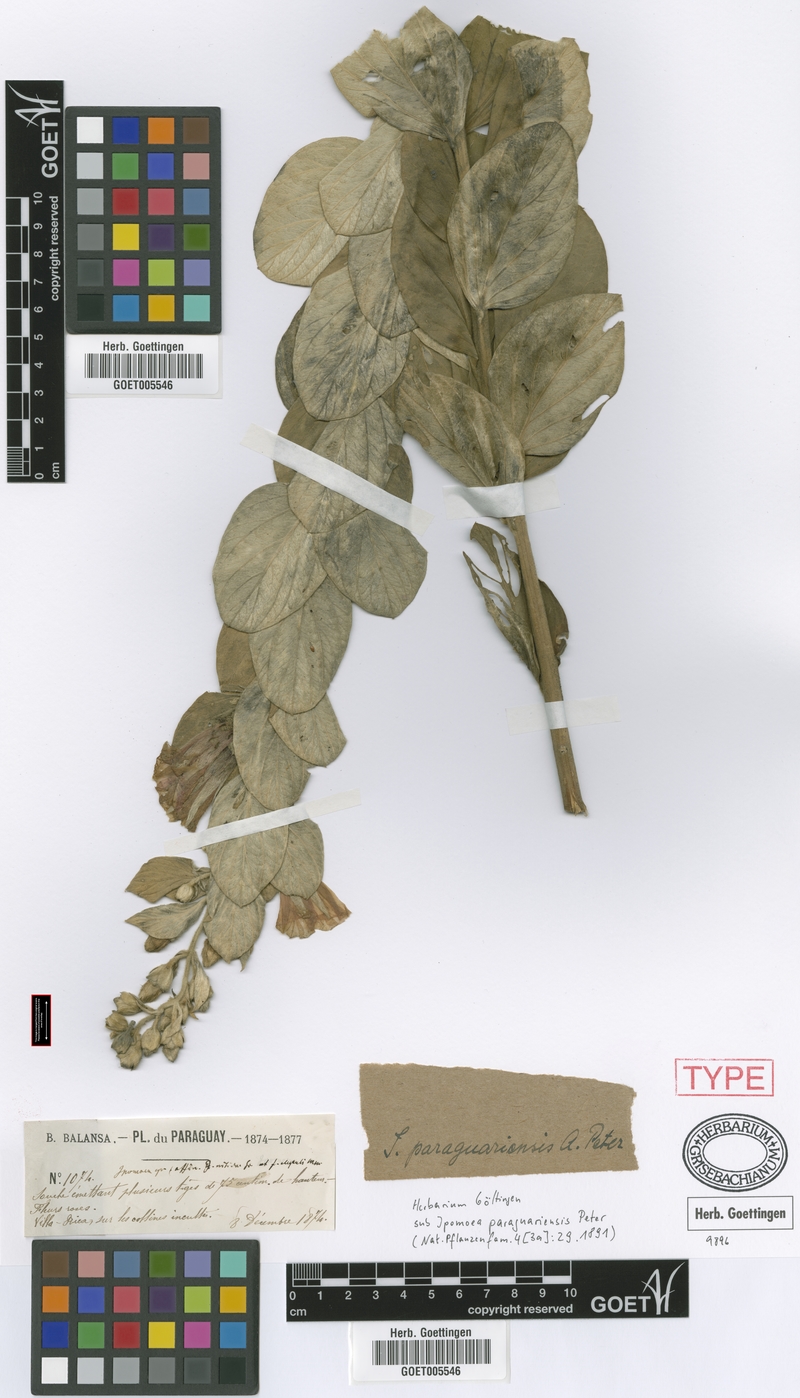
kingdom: Plantae
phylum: Tracheophyta
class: Magnoliopsida
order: Solanales
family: Convolvulaceae
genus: Ipomoea
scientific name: Ipomoea paraguariensis
